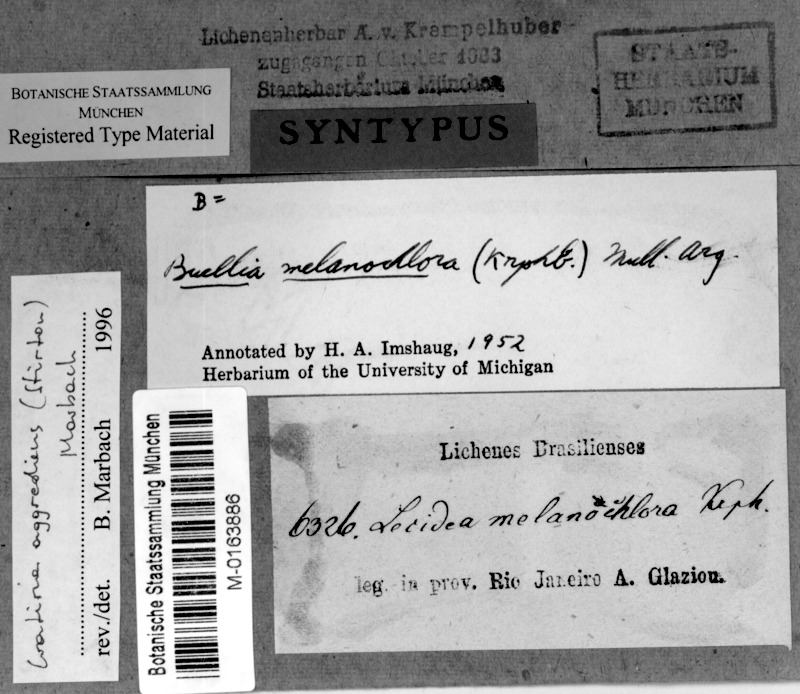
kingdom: Fungi
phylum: Ascomycota
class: Lecanoromycetes
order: Caliciales
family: Caliciaceae
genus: Cratiria
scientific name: Cratiria aggrediens
